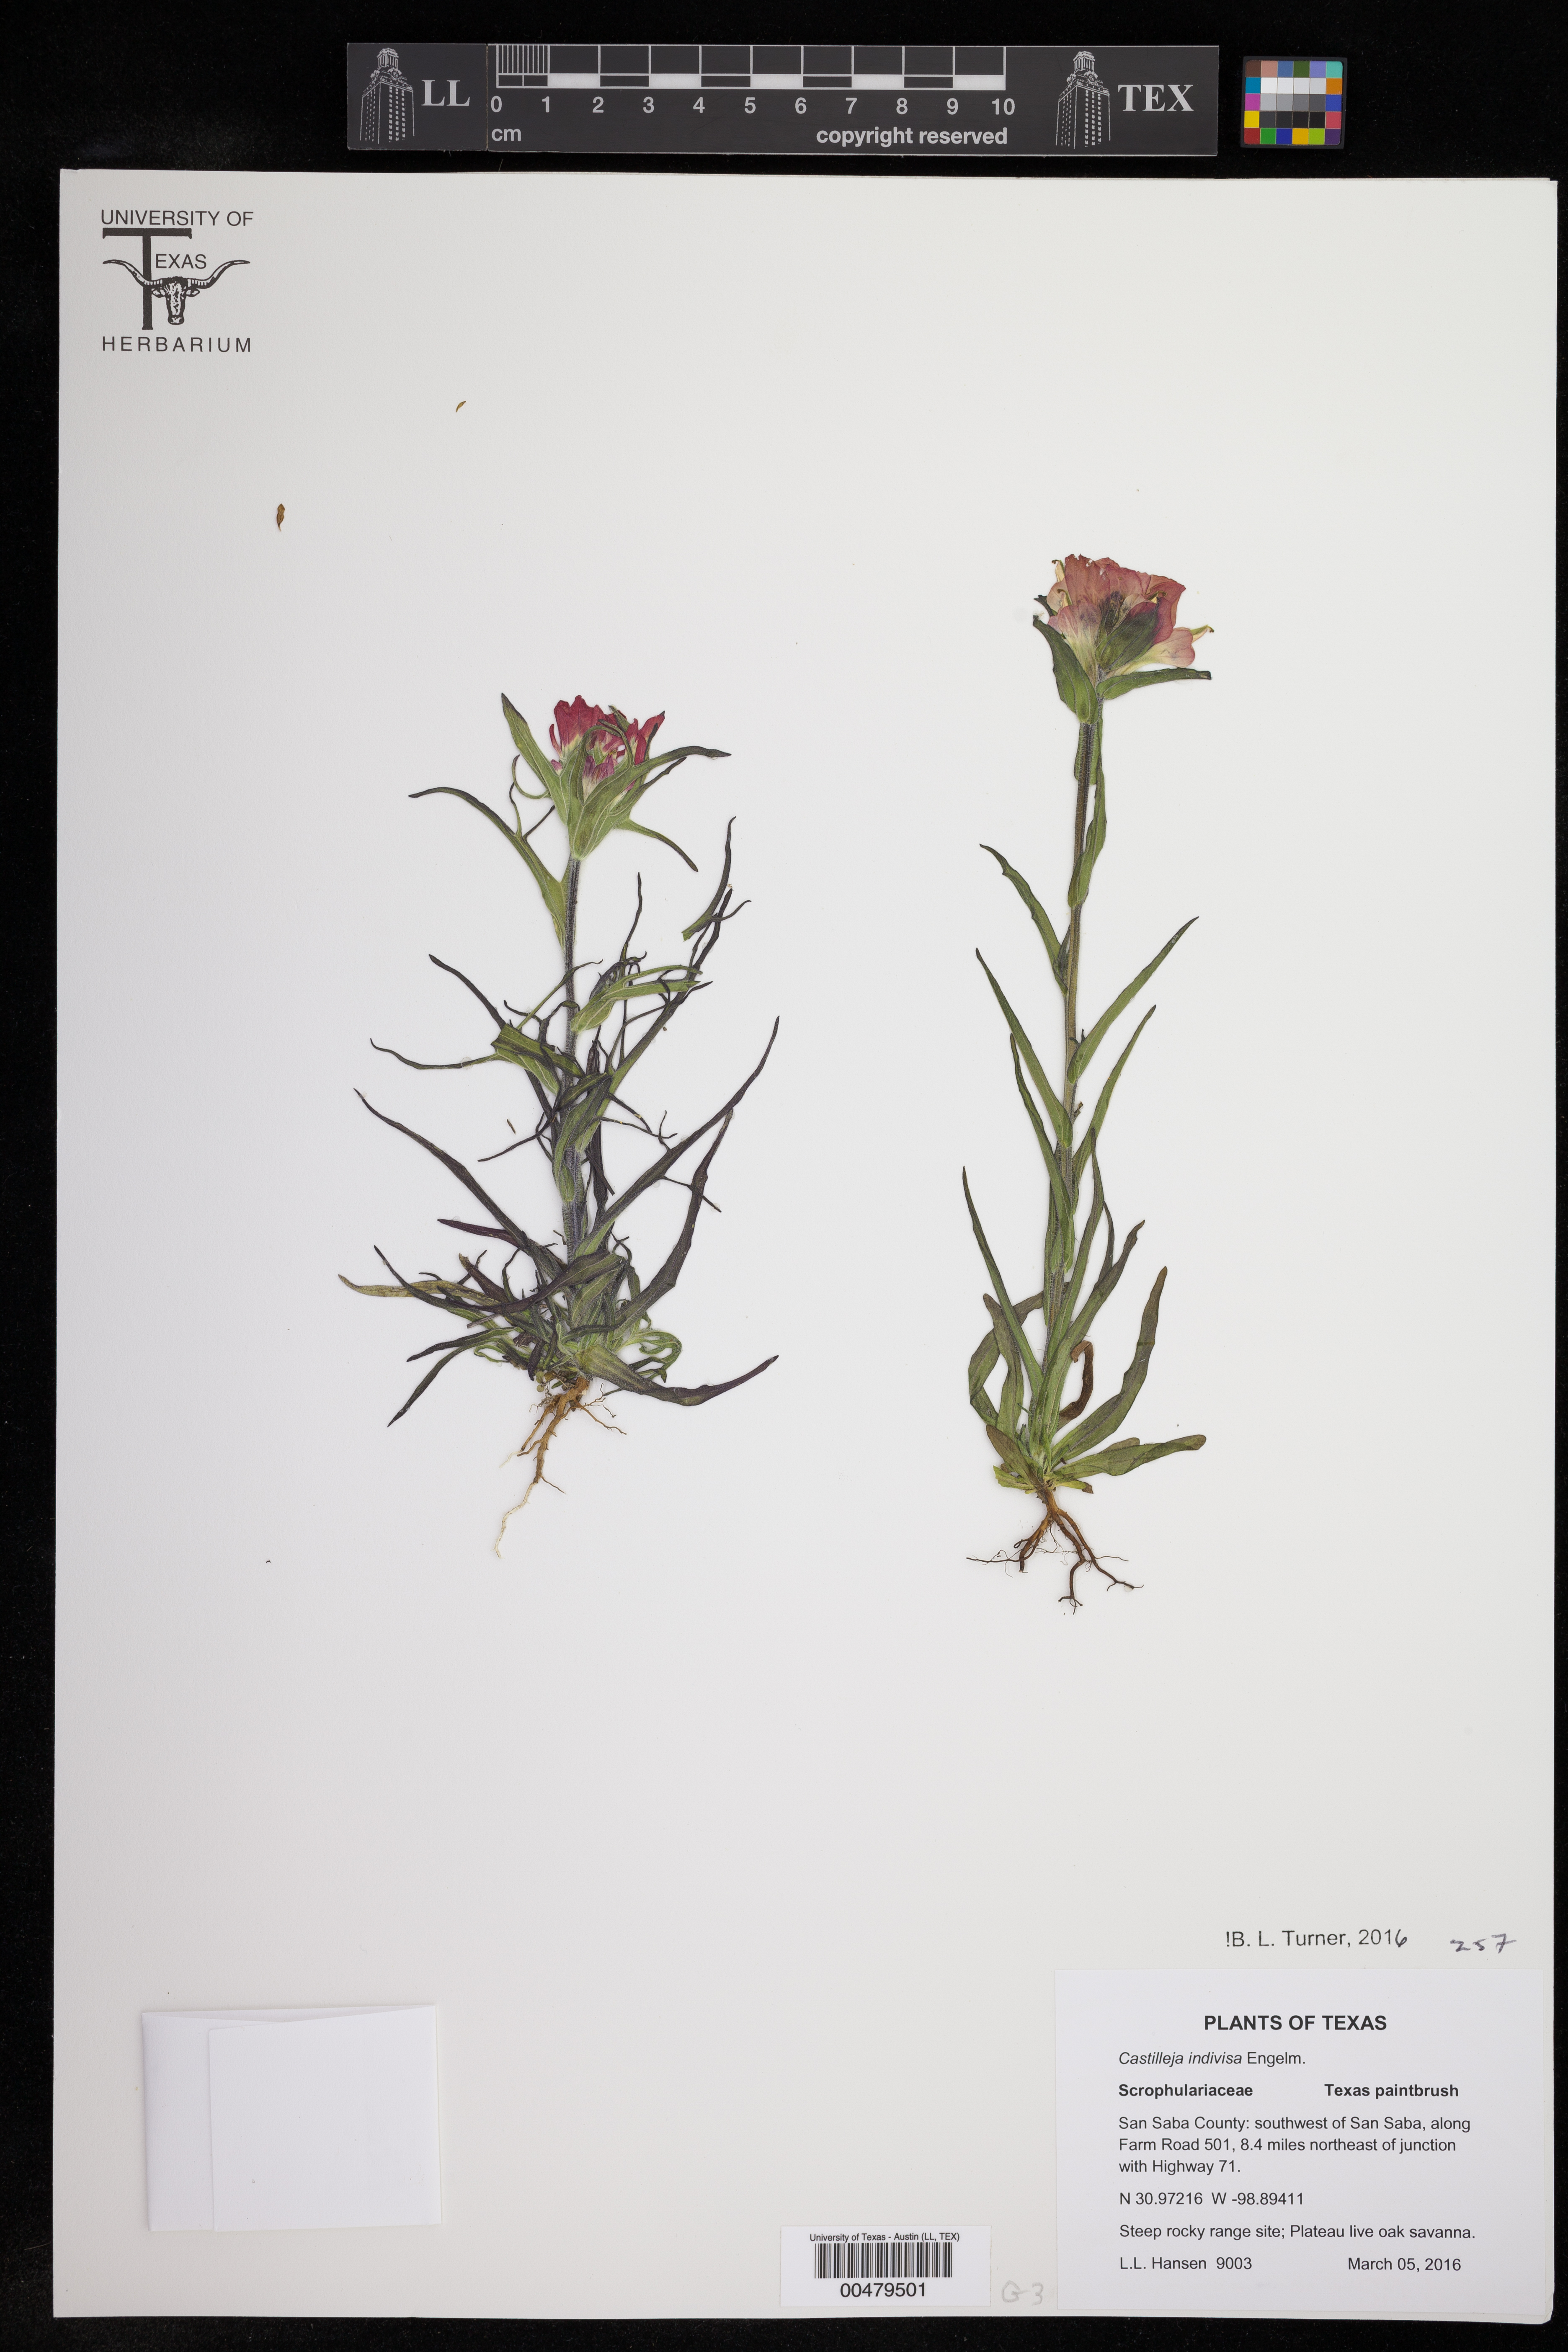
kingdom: Plantae
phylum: Tracheophyta
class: Magnoliopsida
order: Lamiales
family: Orobanchaceae
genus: Castilleja
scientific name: Castilleja indivisa
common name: Texas paintbrush
